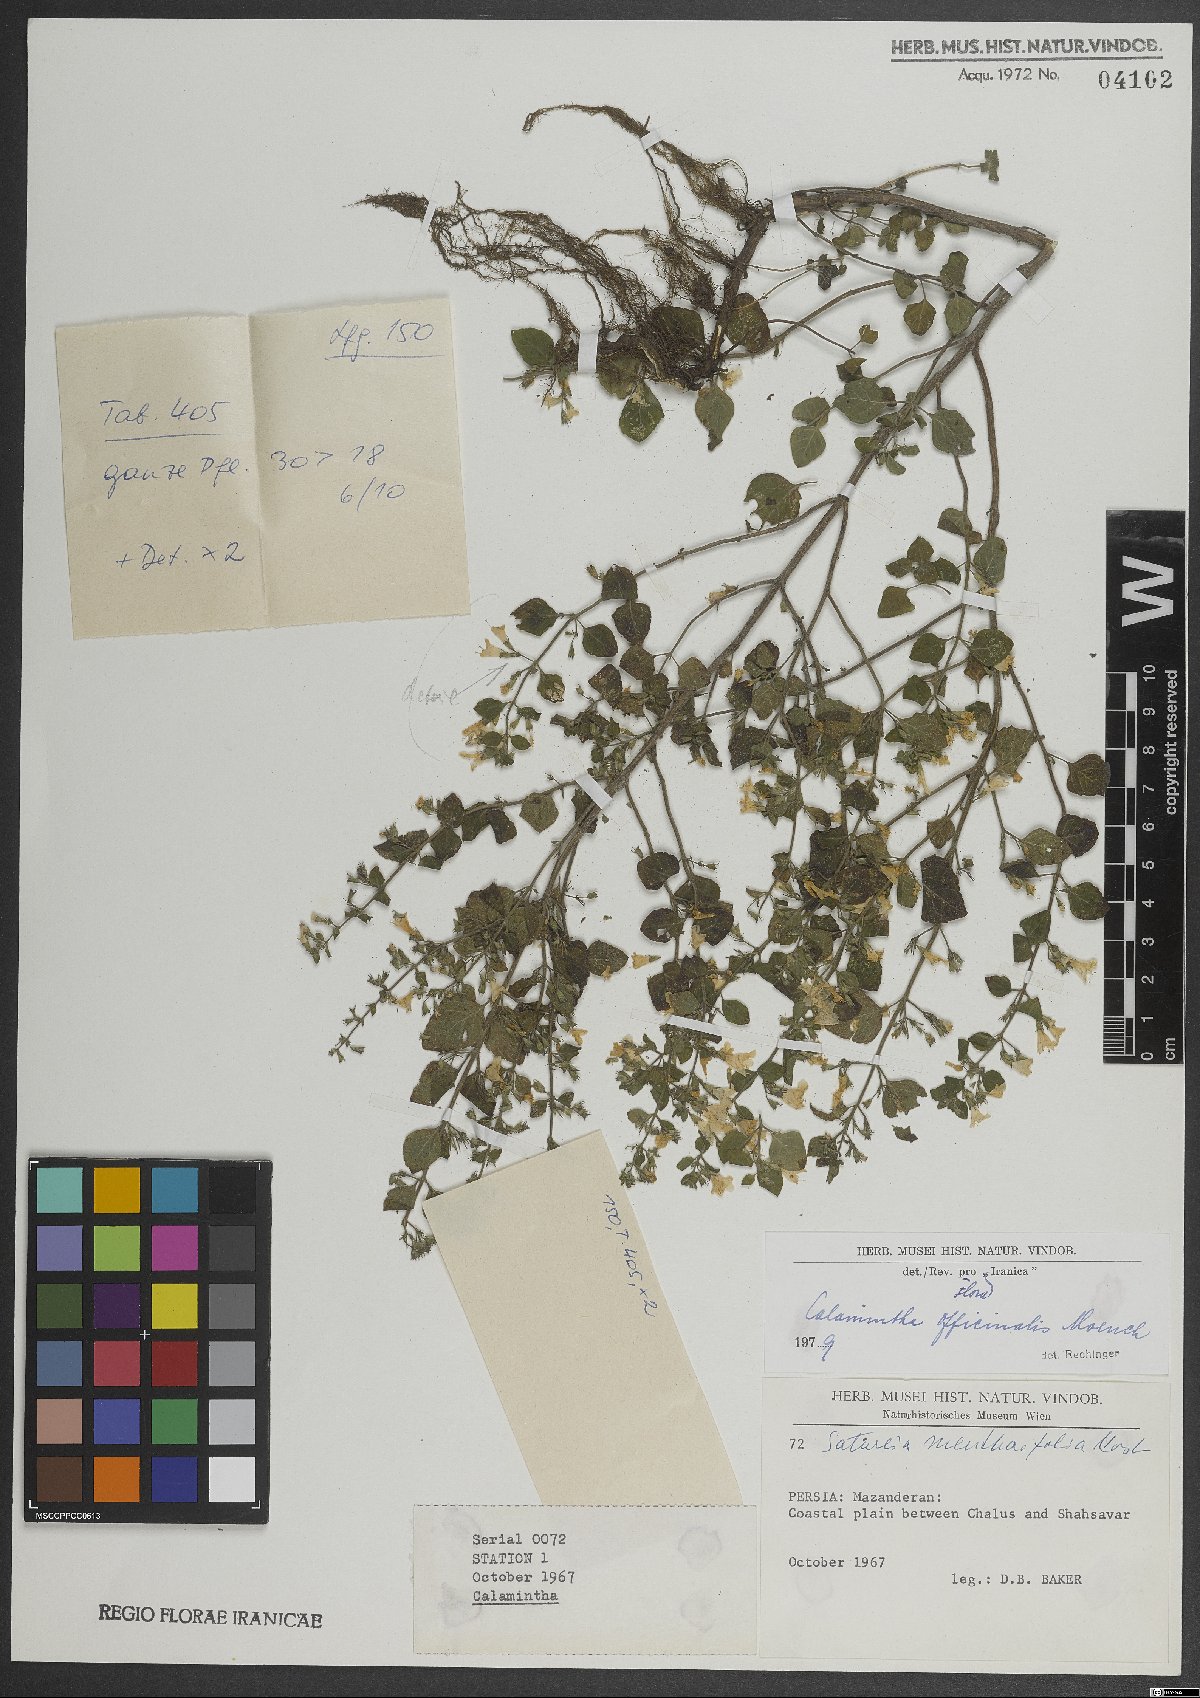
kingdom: Plantae
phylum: Tracheophyta
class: Magnoliopsida
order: Lamiales
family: Lamiaceae
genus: Clinopodium
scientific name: Clinopodium nepeta
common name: Lesser calamint
